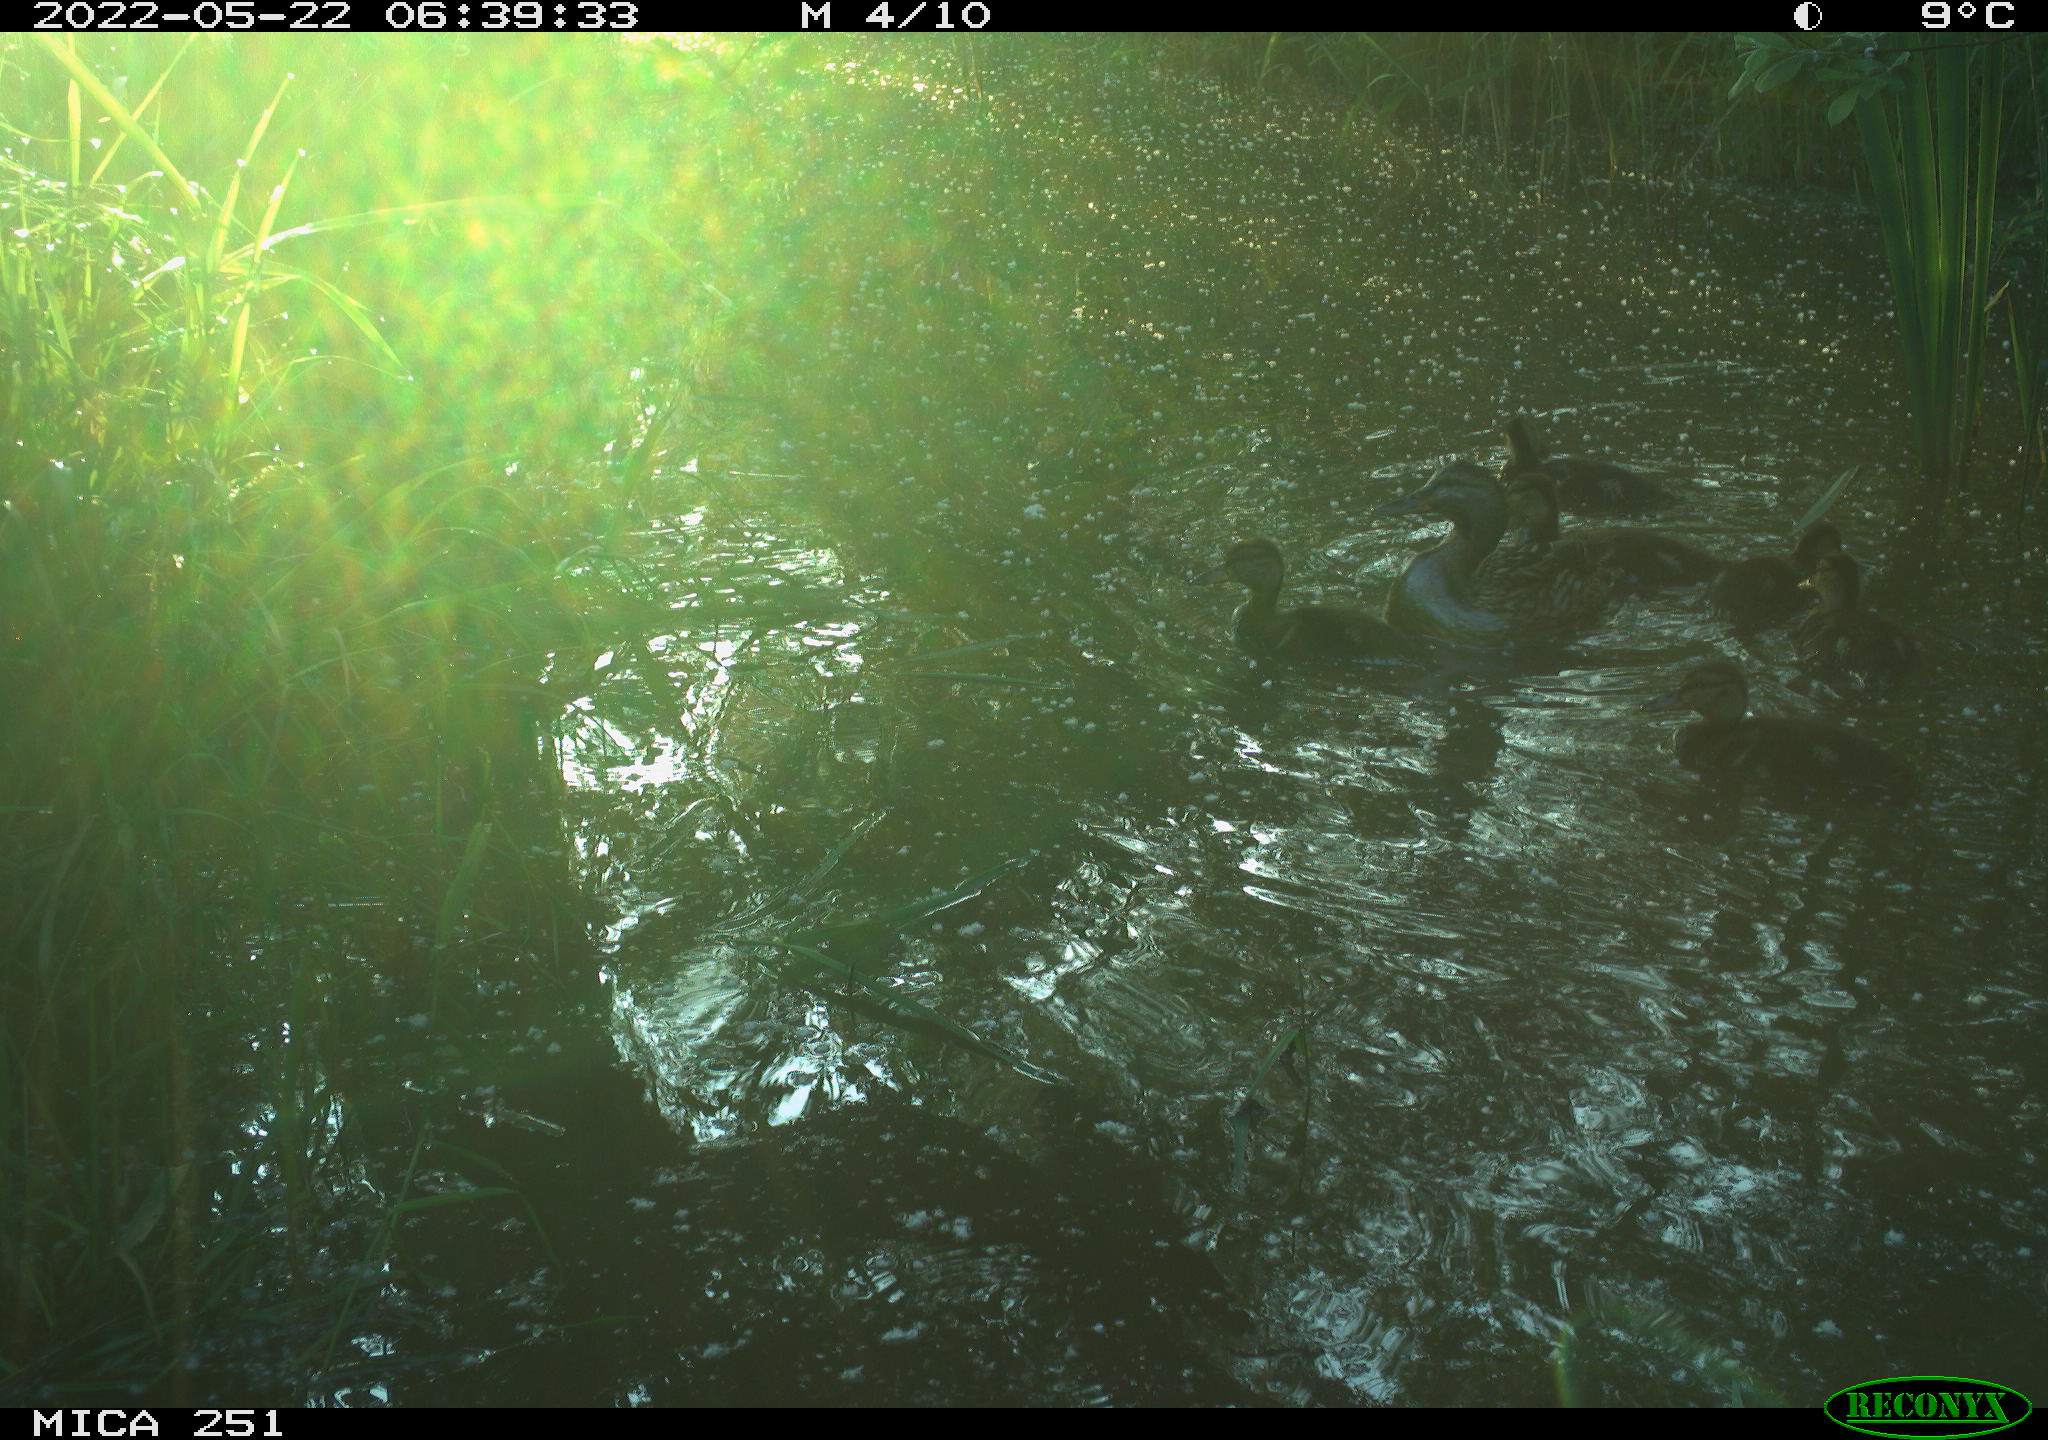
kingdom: Animalia
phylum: Chordata
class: Aves
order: Anseriformes
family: Anatidae
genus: Anas
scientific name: Anas platyrhynchos
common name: Mallard
